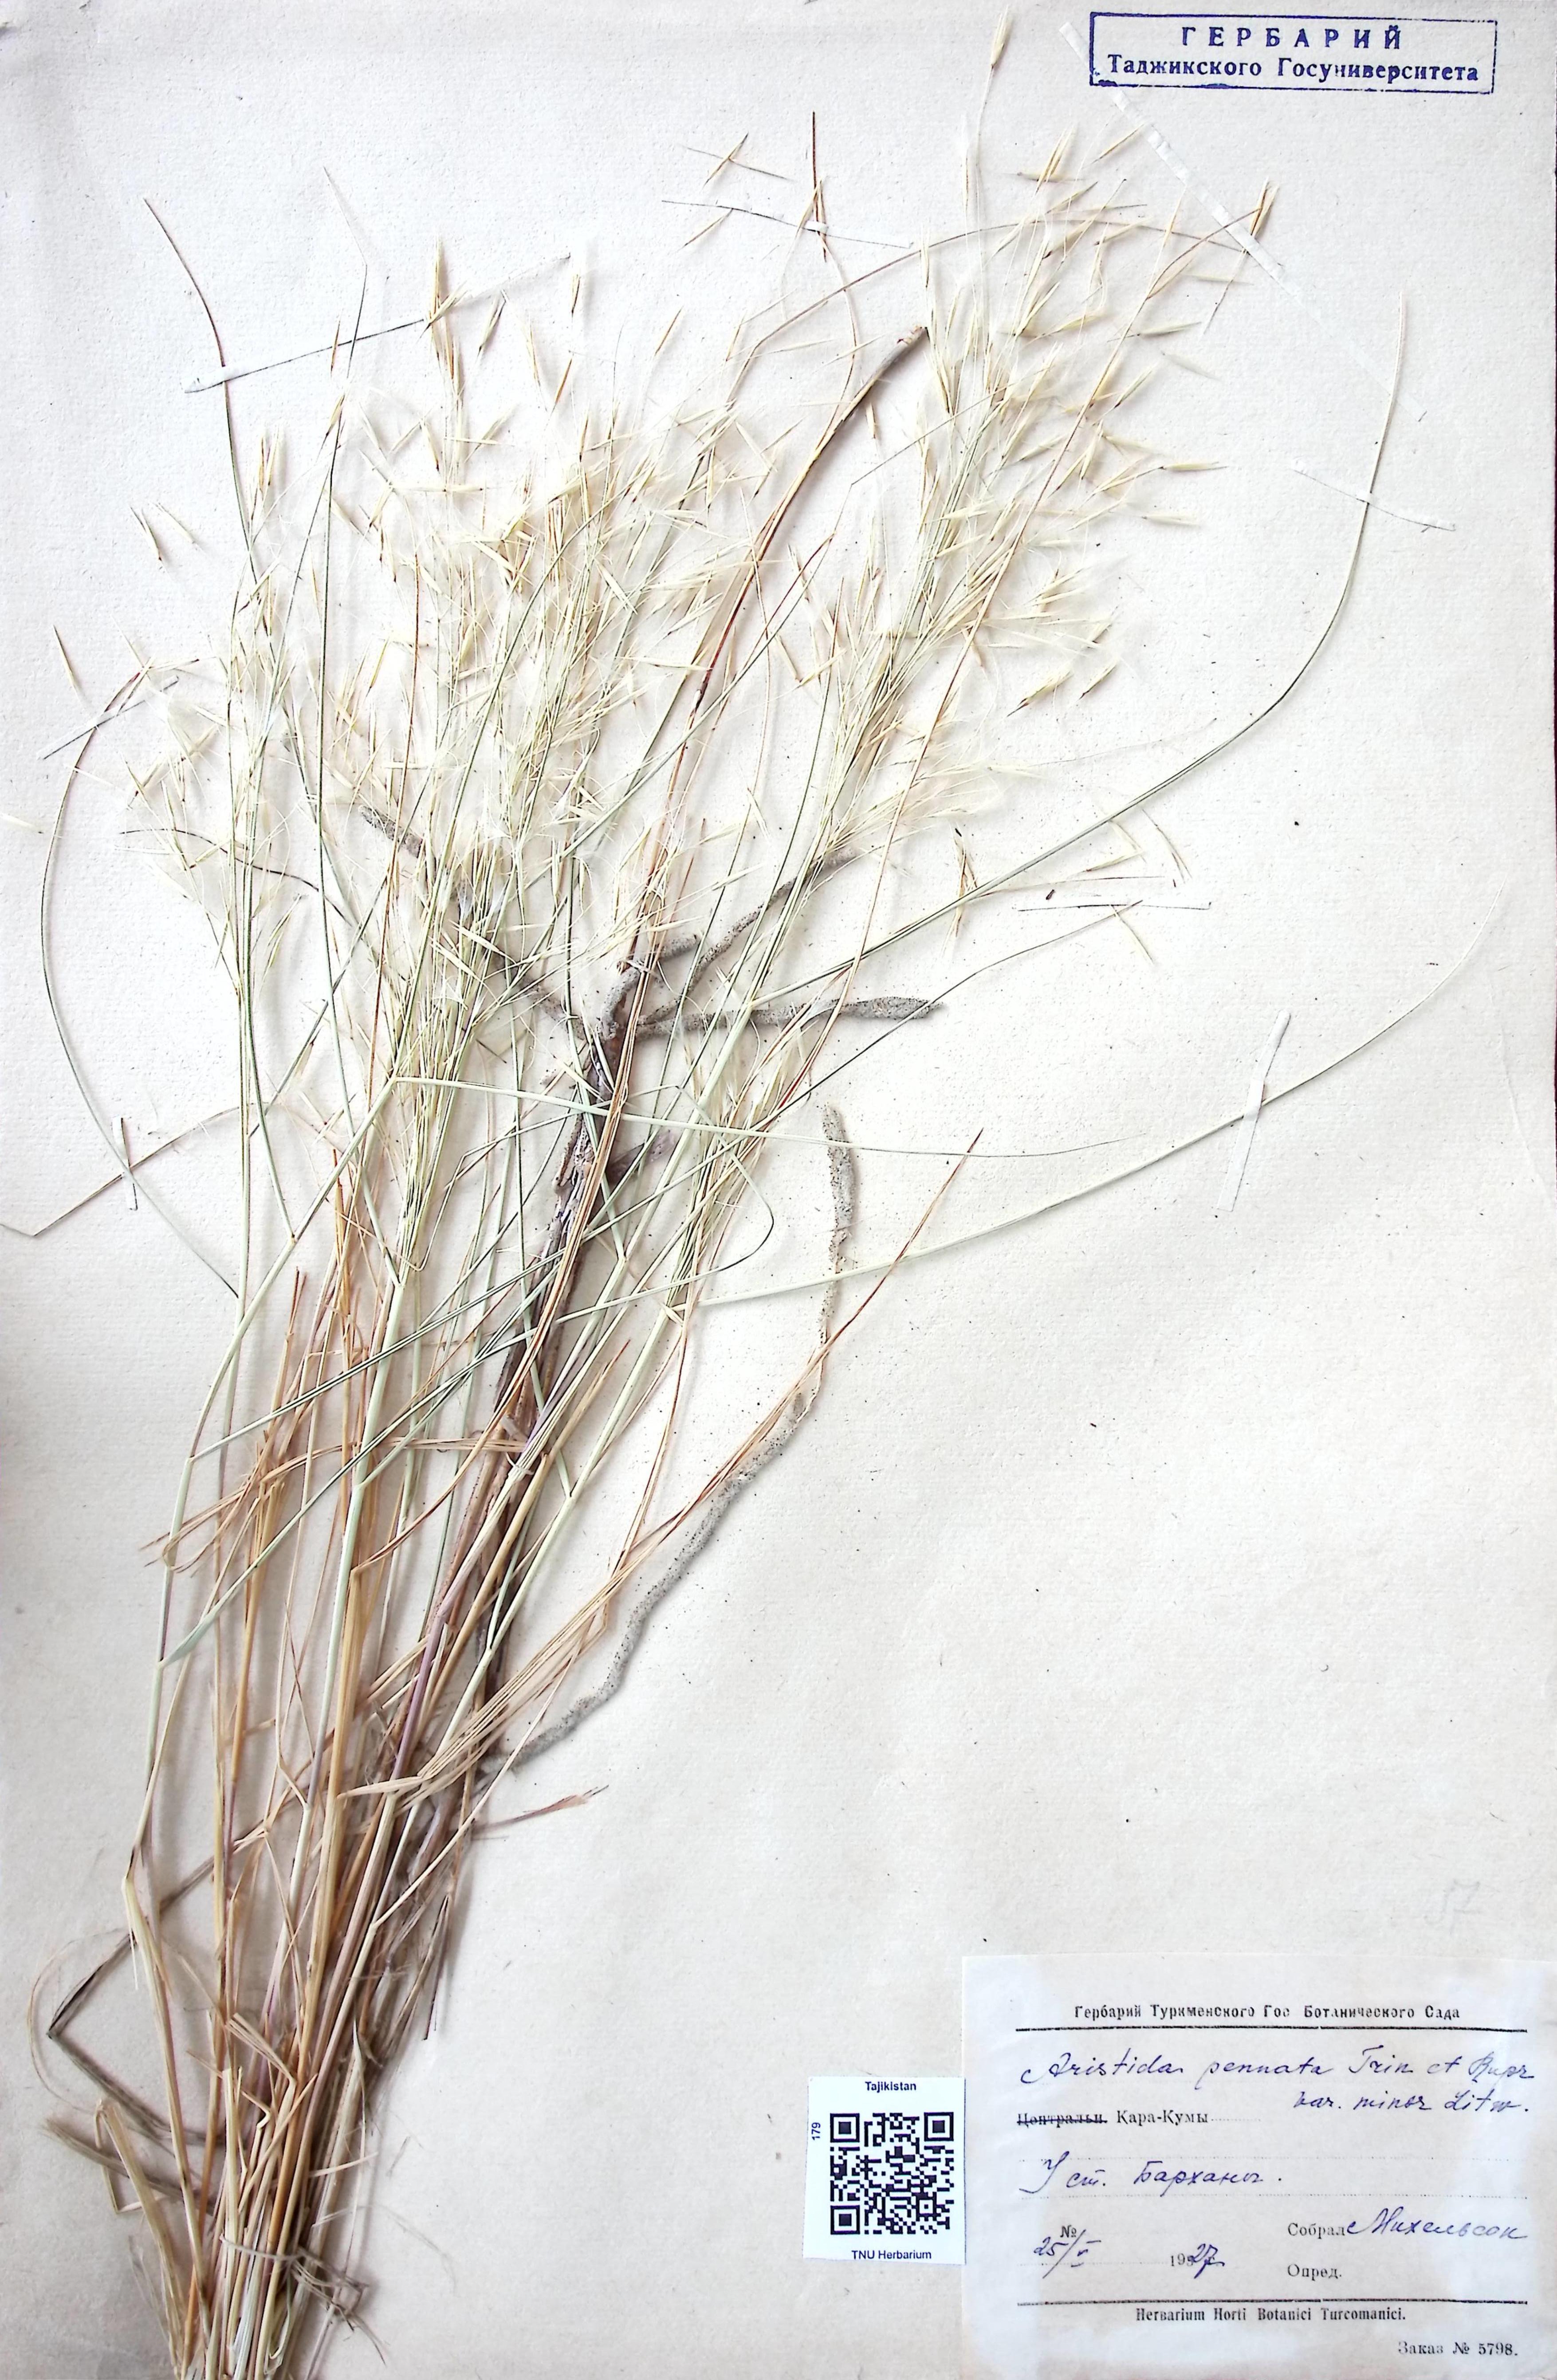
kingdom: Plantae
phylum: Tracheophyta
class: Liliopsida
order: Poales
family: Poaceae
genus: Stipagrostis
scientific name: Stipagrostis pennata
